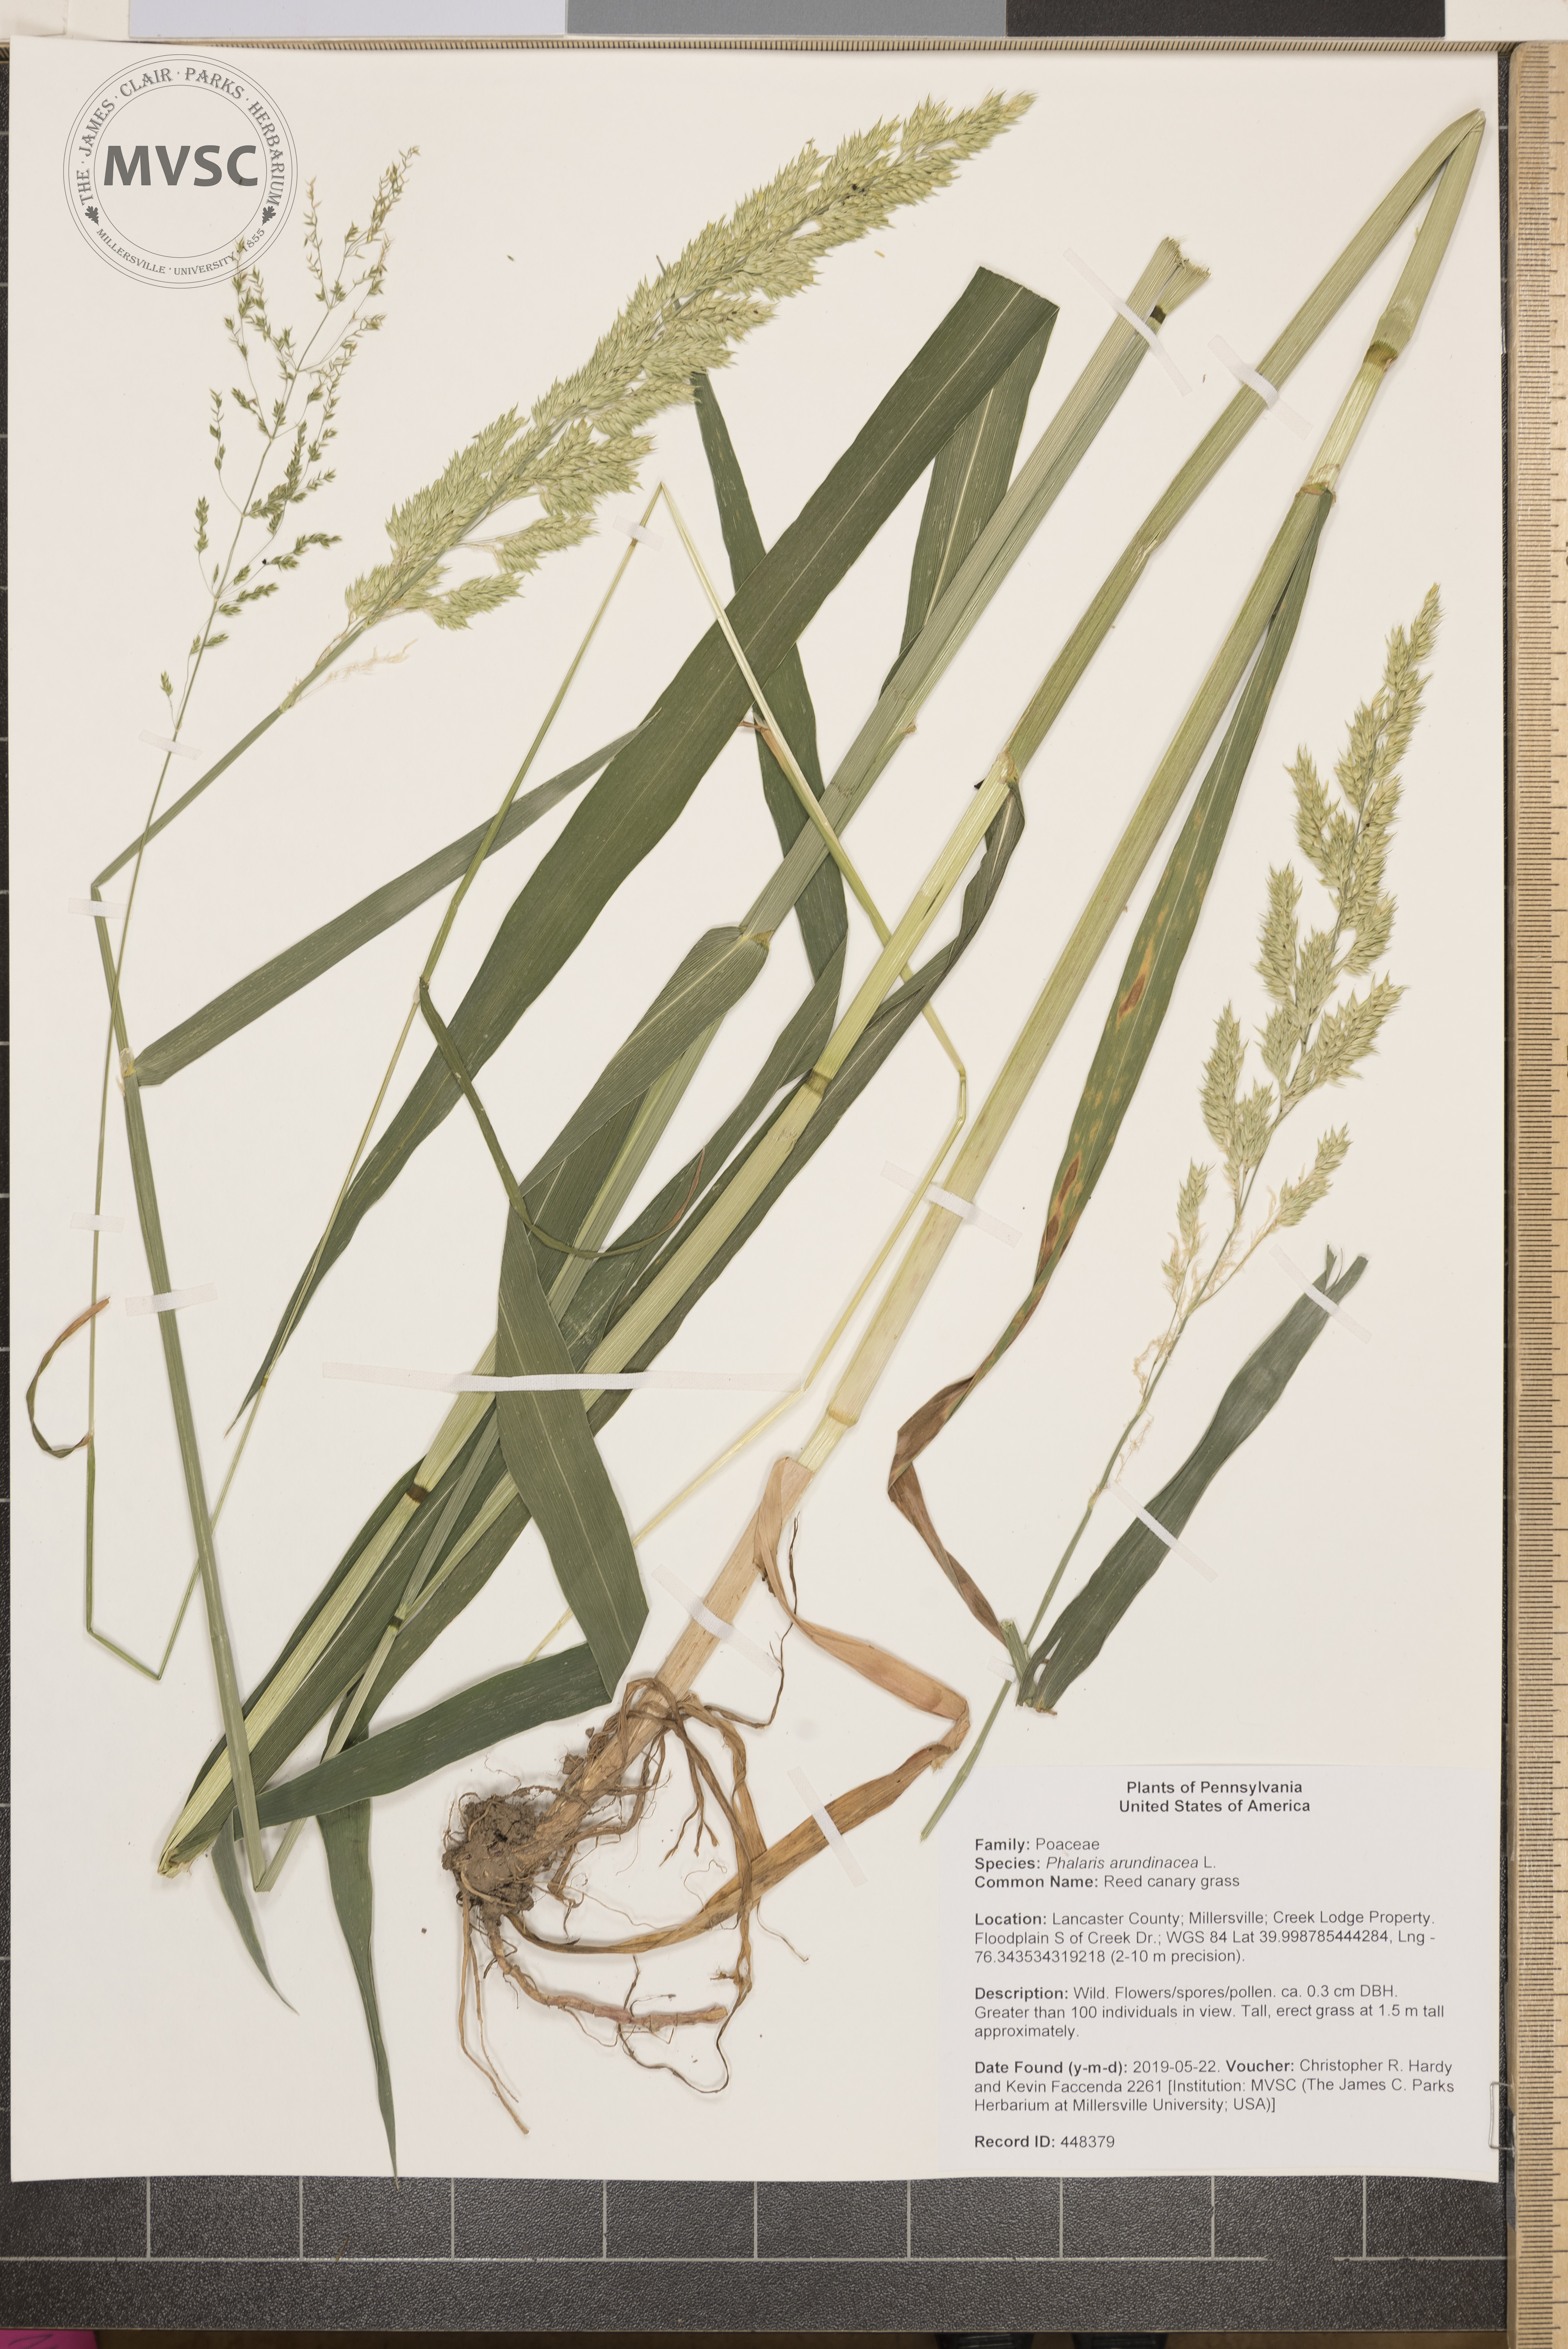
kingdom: Plantae
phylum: Tracheophyta
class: Liliopsida
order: Poales
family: Poaceae
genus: Phalaris
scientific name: Phalaris arundinacea
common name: Reed canary grass
